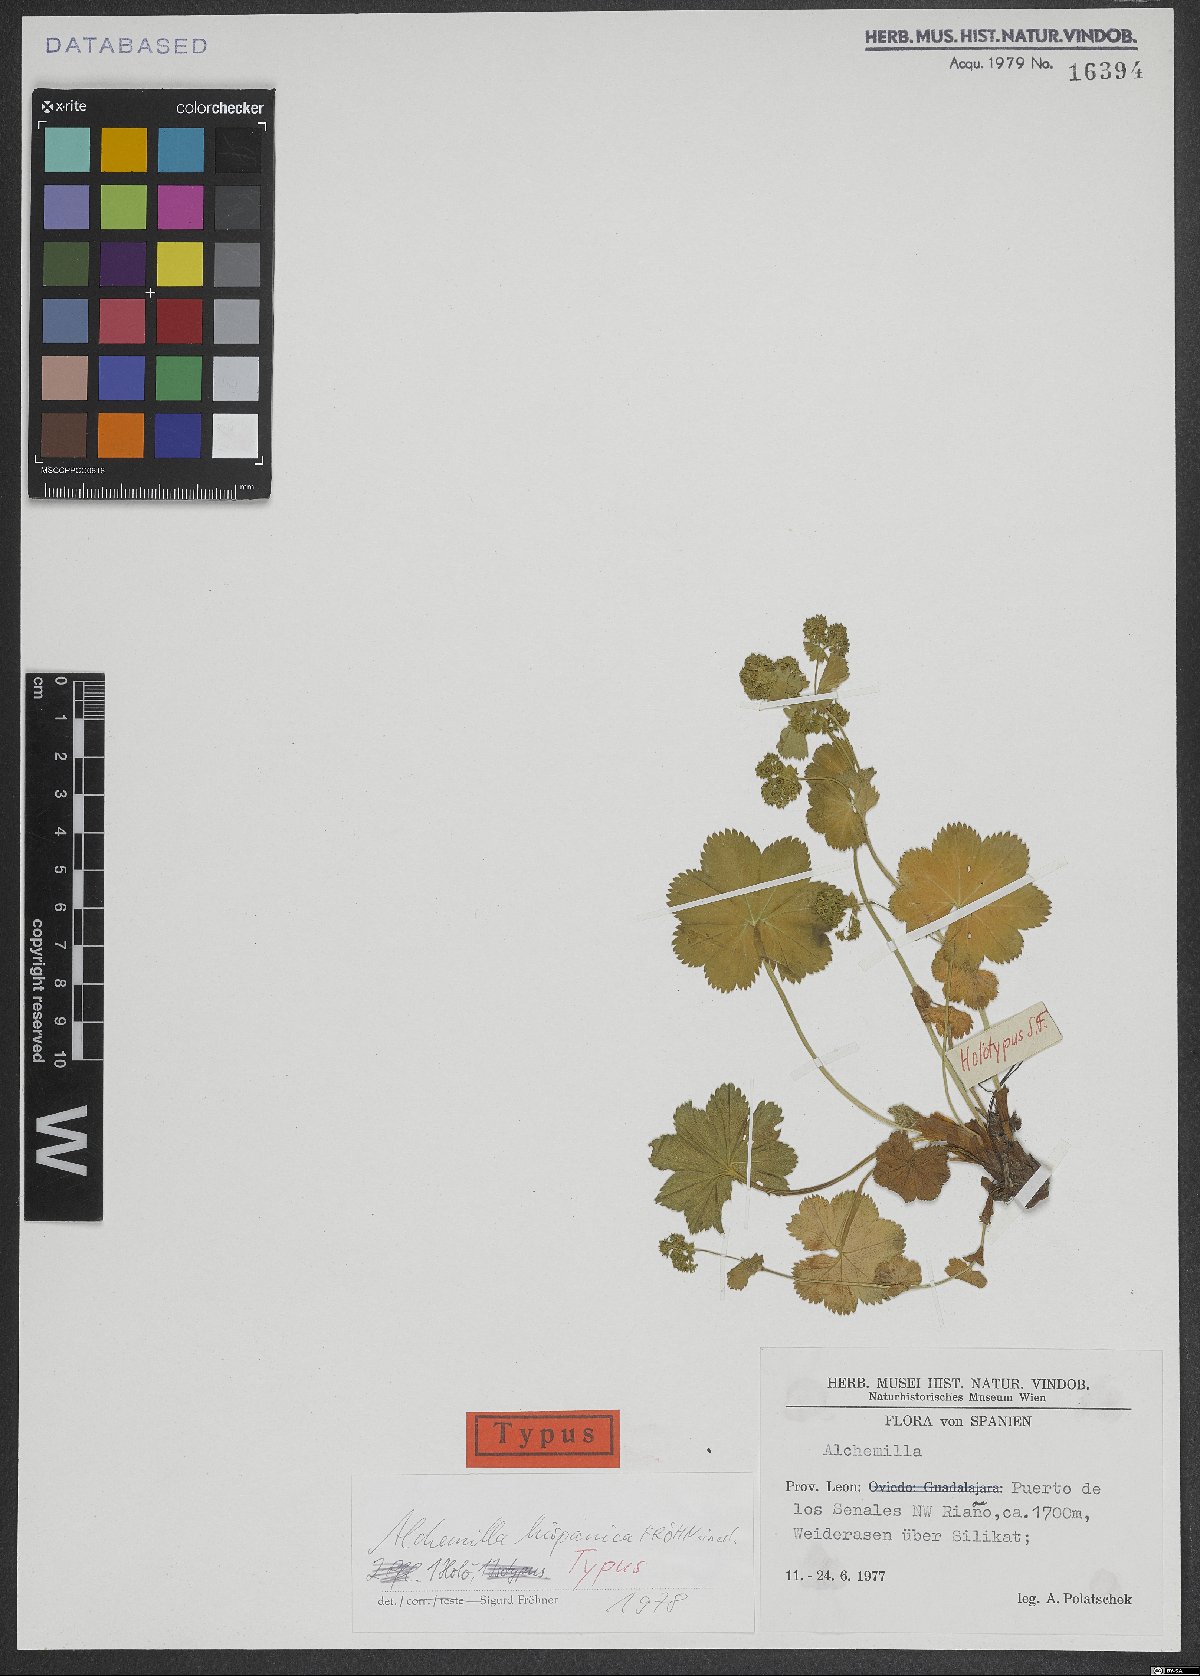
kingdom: Plantae
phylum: Tracheophyta
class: Magnoliopsida
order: Rosales
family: Rosaceae
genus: Alchemilla
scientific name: Alchemilla hispanica
